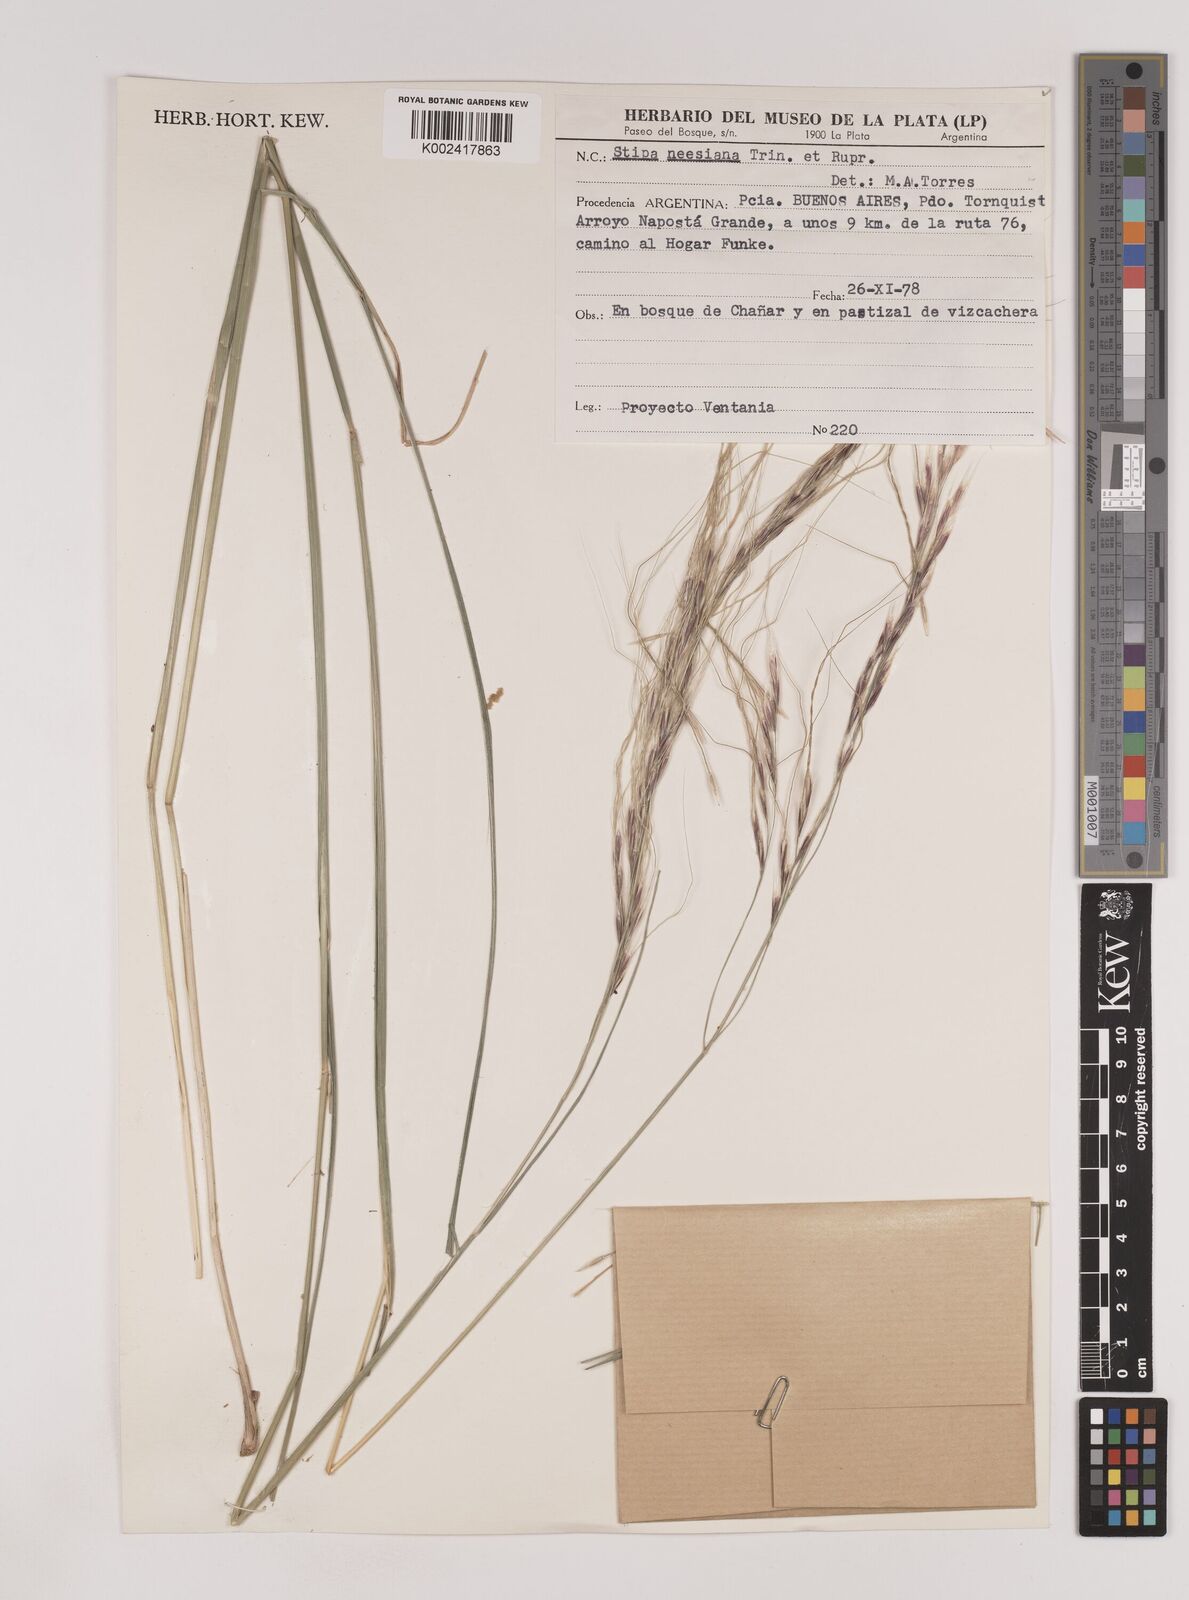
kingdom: Plantae
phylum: Tracheophyta
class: Liliopsida
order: Poales
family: Poaceae
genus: Nassella
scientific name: Nassella neesiana
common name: American needle-grass
